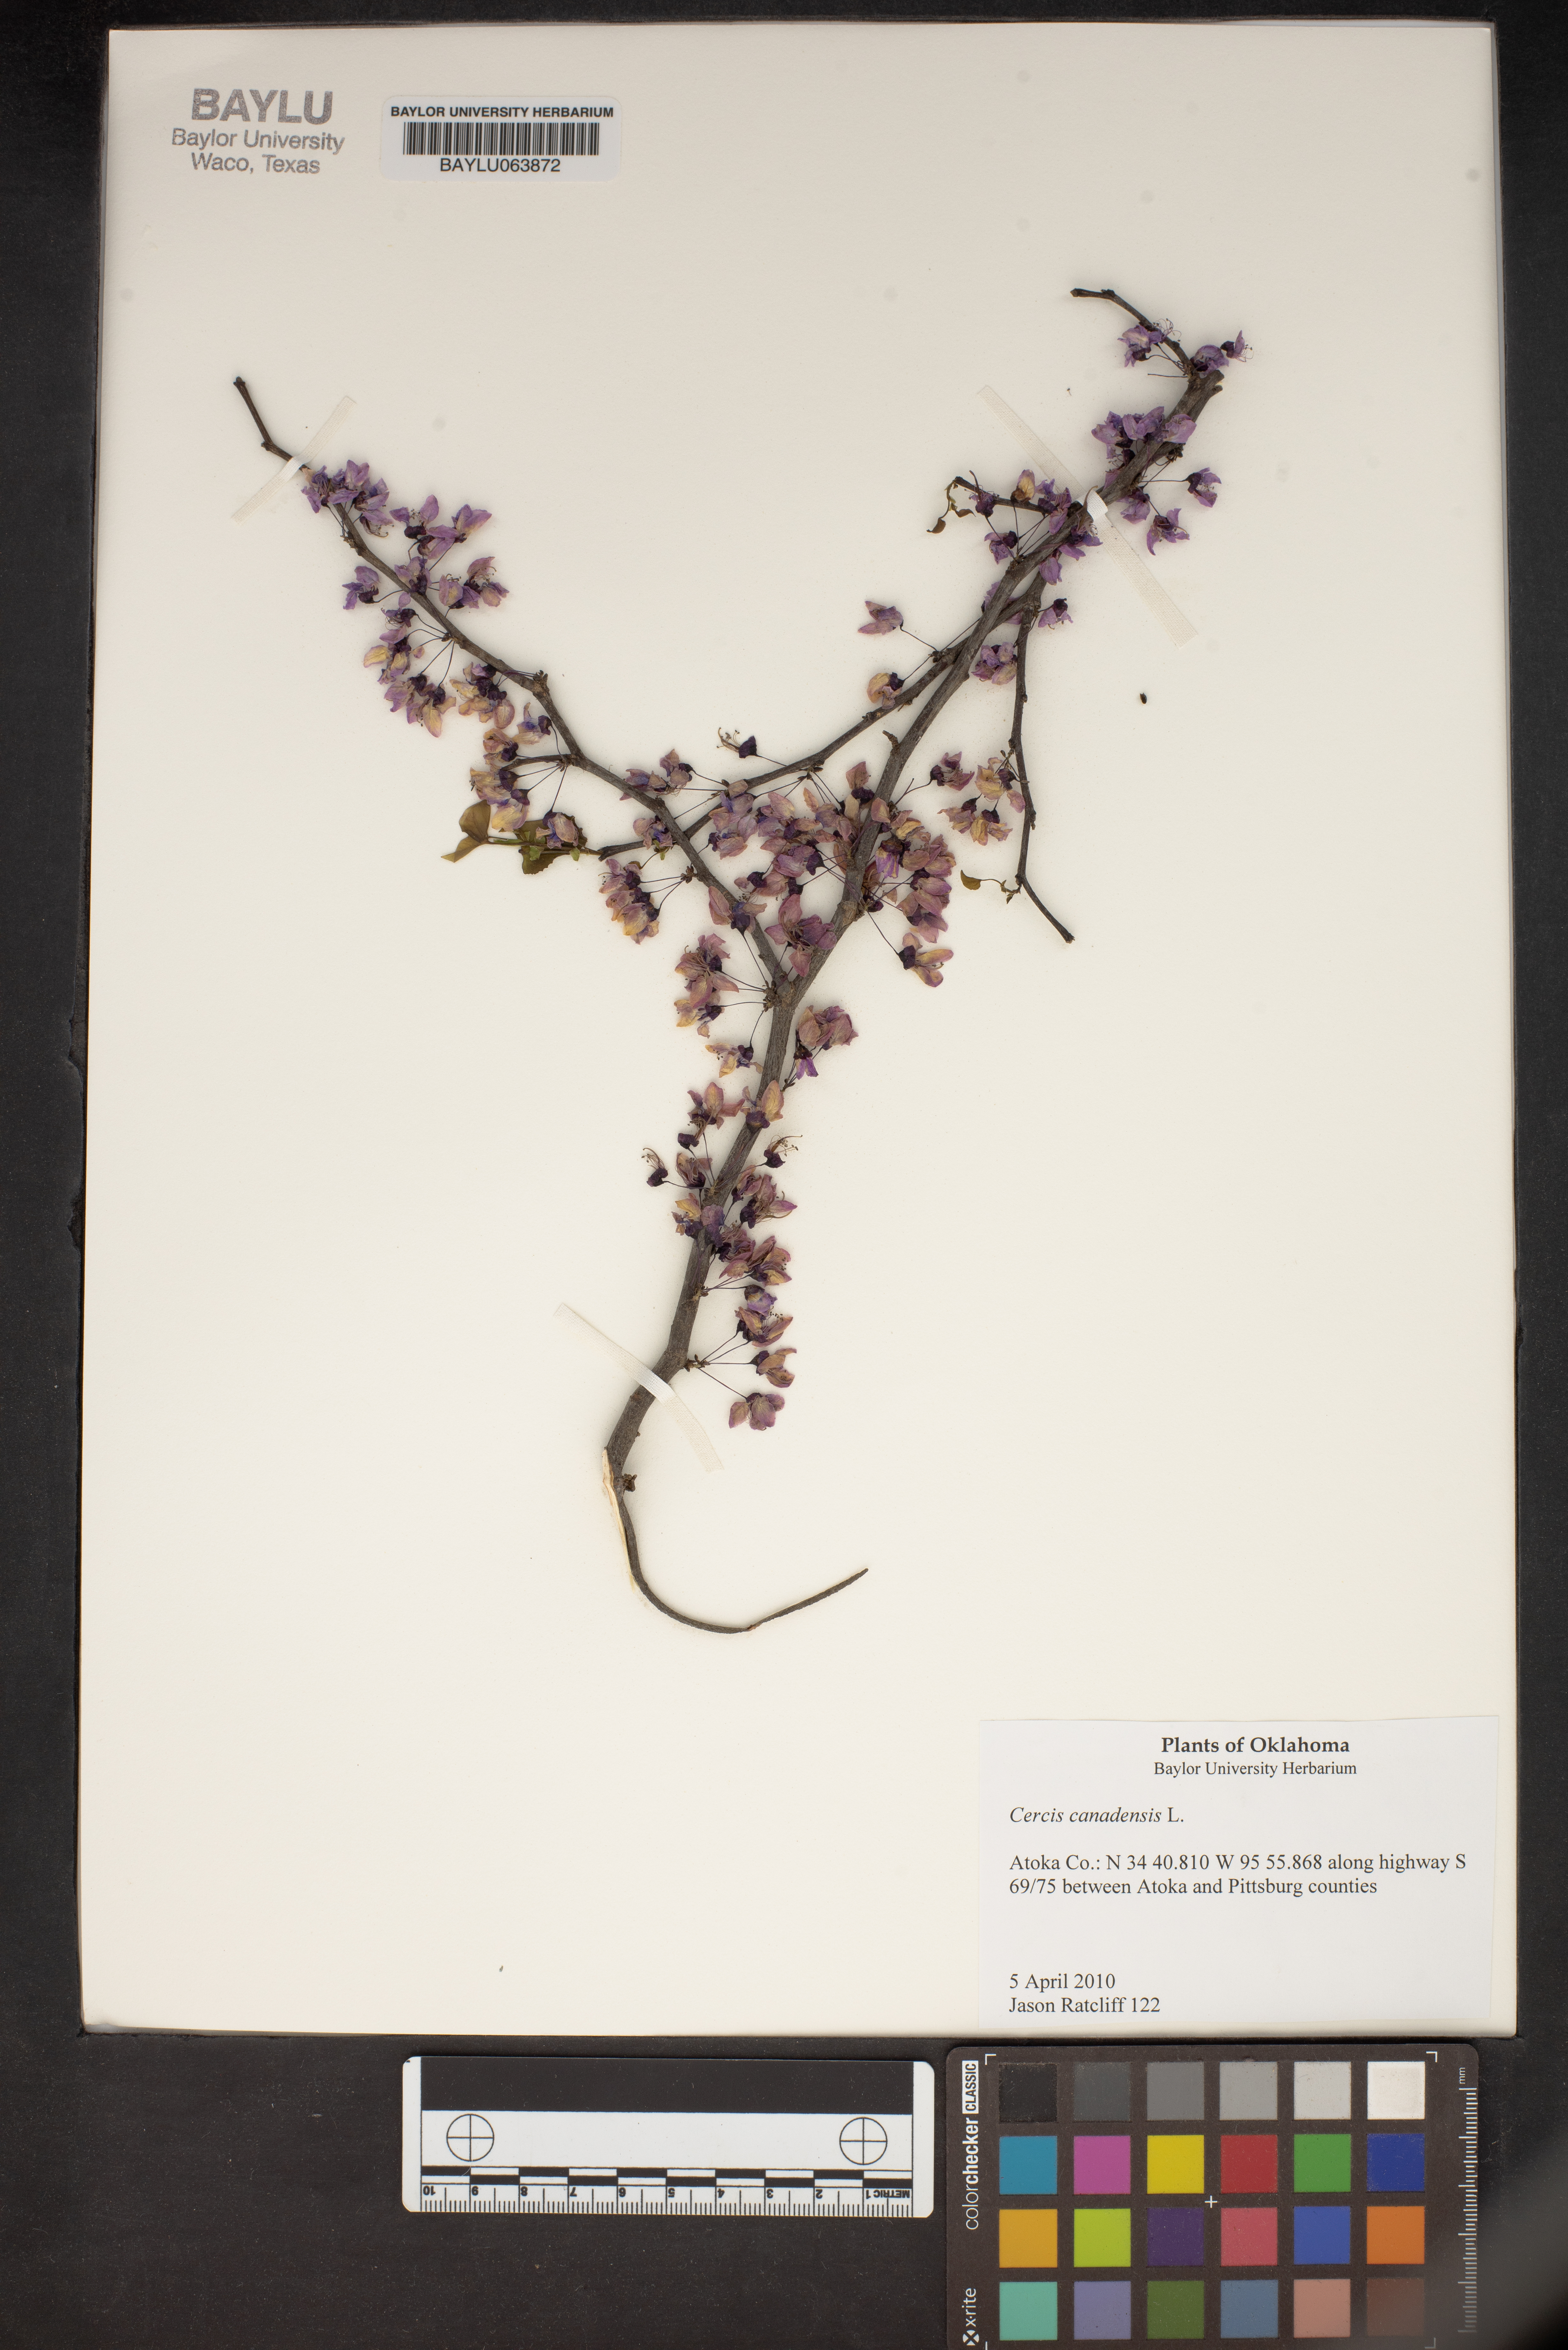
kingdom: Plantae
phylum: Tracheophyta
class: Magnoliopsida
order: Fabales
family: Fabaceae
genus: Cercis
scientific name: Cercis canadensis
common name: Eastern redbud
